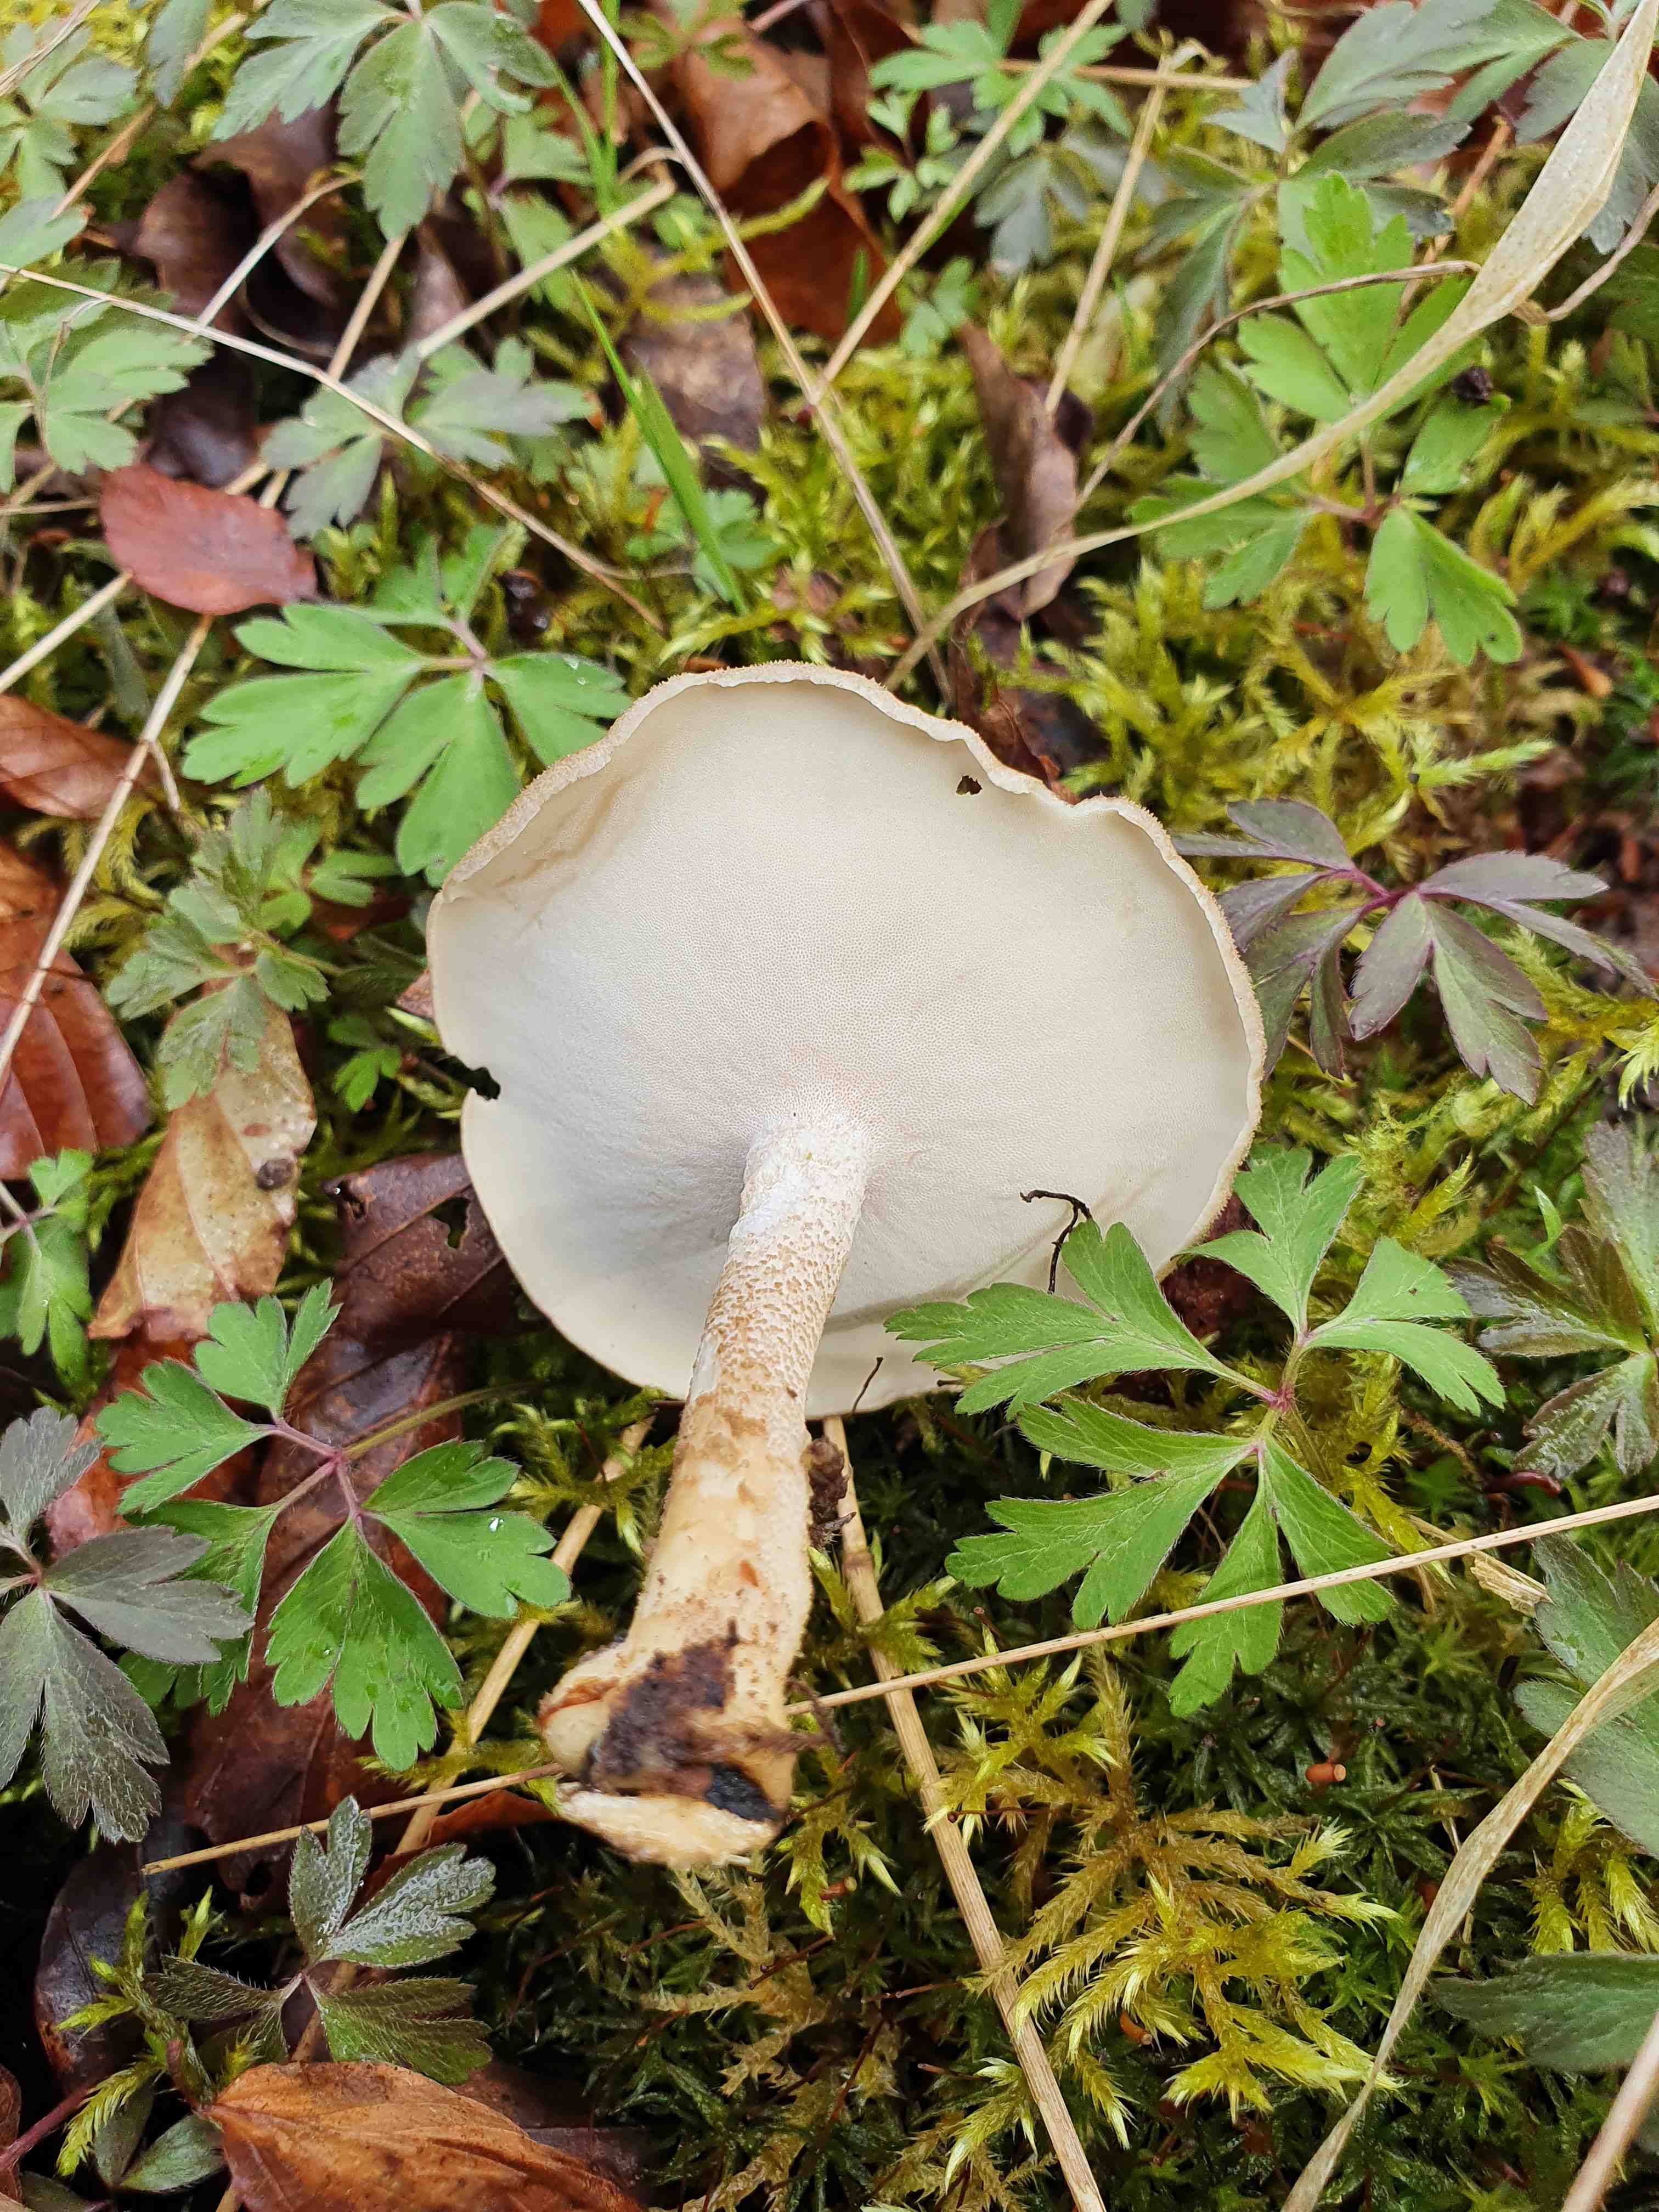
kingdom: Fungi
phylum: Basidiomycota
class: Agaricomycetes
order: Polyporales
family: Polyporaceae
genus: Lentinus
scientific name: Lentinus substrictus
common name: forårs-stilkporesvamp
